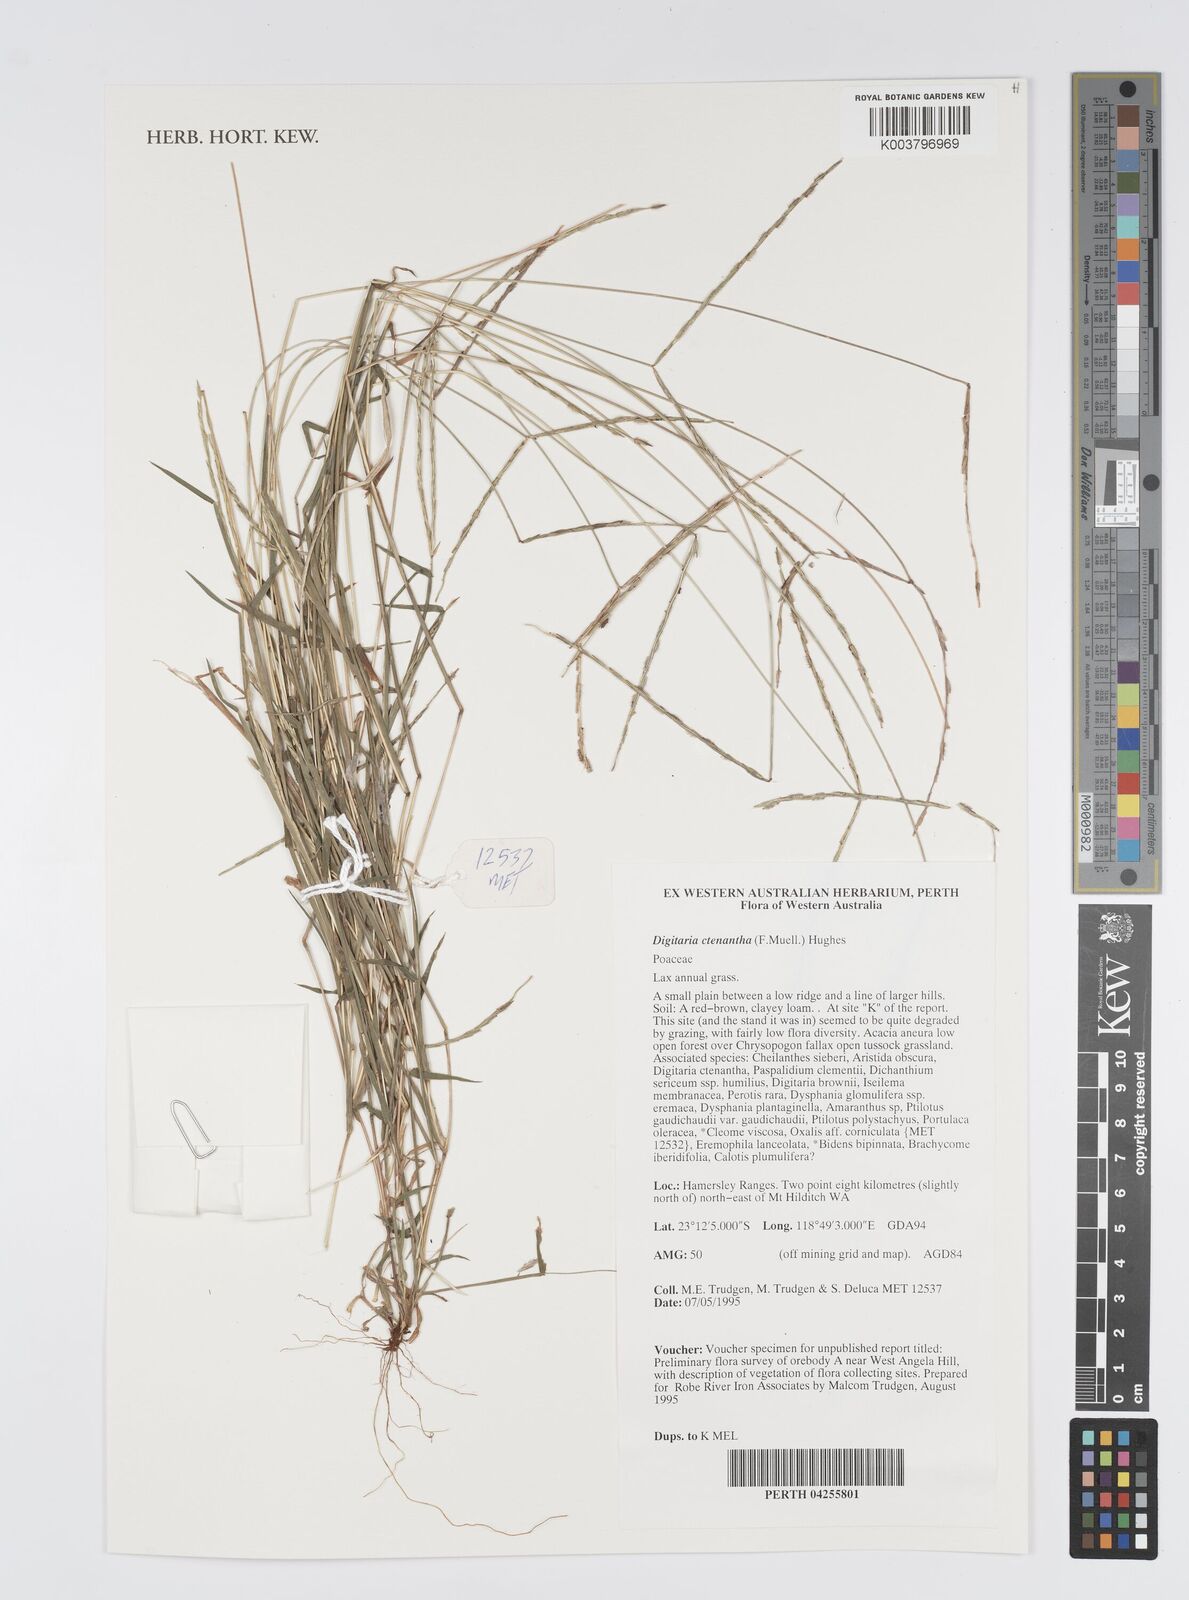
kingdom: Plantae
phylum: Tracheophyta
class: Liliopsida
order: Poales
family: Poaceae
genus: Digitaria
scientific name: Digitaria ctenantha
